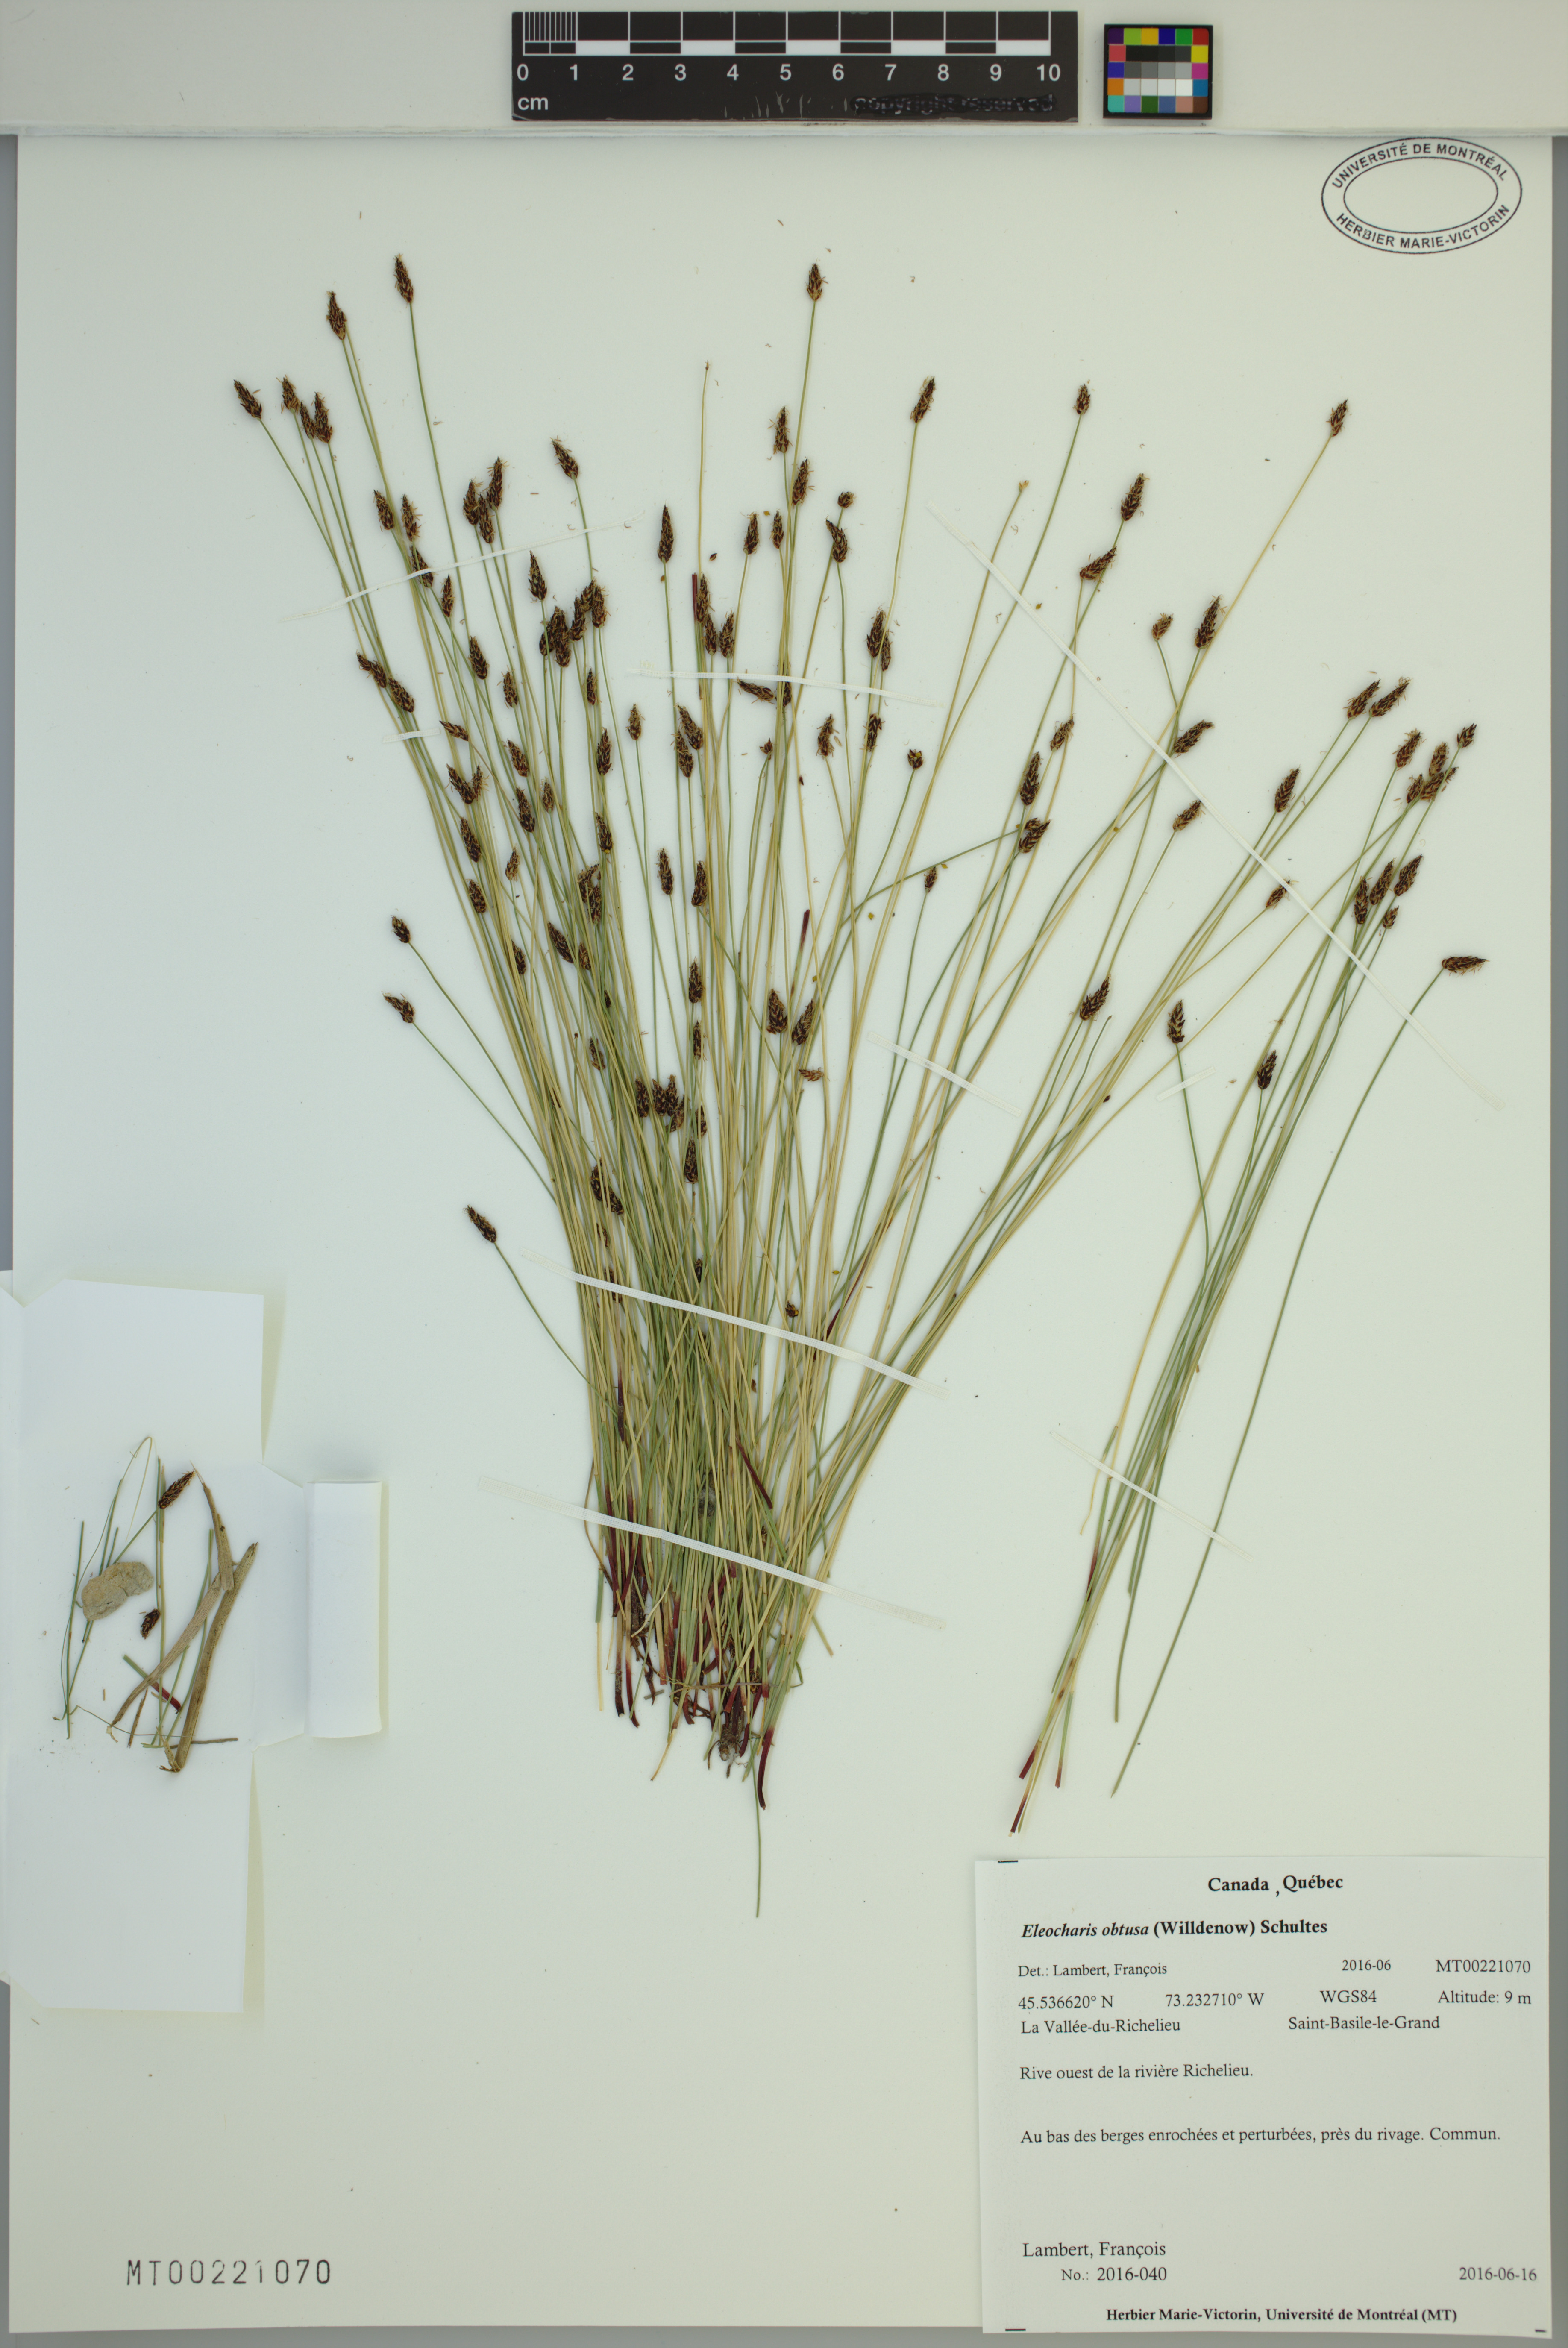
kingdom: Plantae
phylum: Tracheophyta
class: Liliopsida
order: Poales
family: Cyperaceae
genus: Eleocharis
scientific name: Eleocharis obtusa
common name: Blunt spikerush
